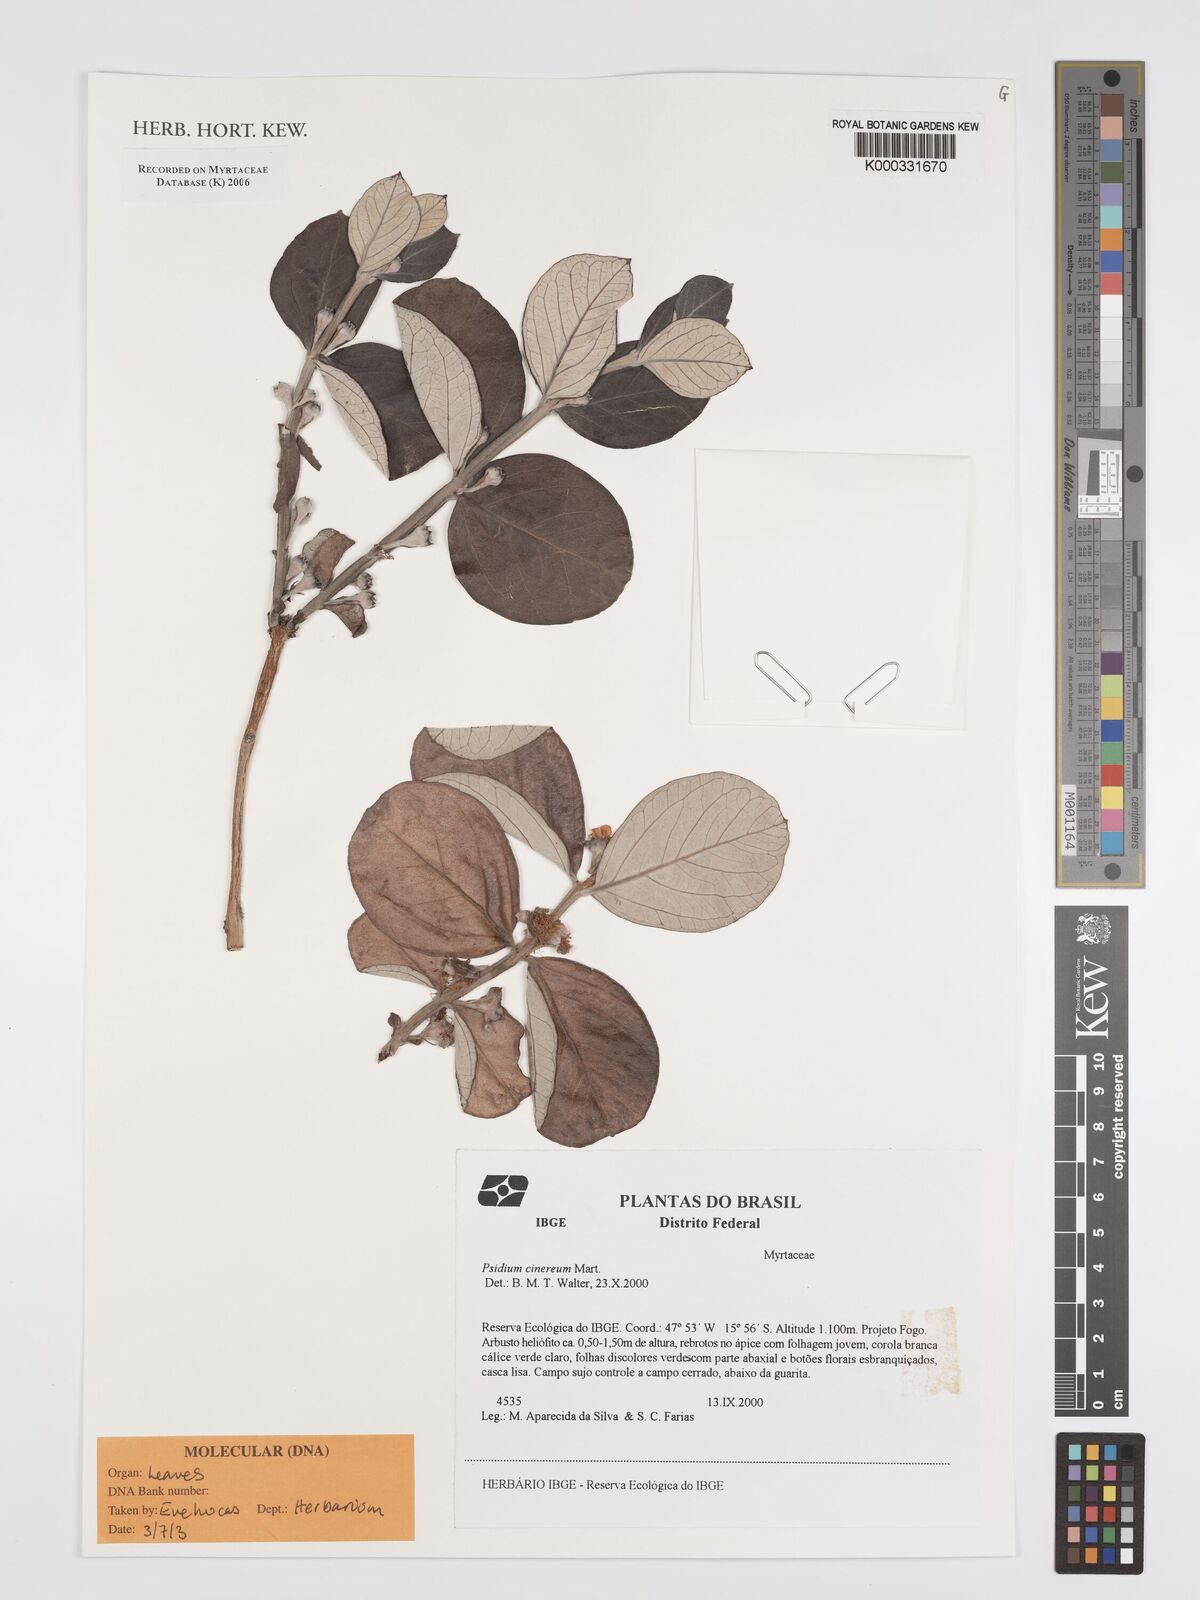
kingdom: Plantae
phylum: Tracheophyta
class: Magnoliopsida
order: Myrtales
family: Myrtaceae
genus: Psidium
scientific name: Psidium
